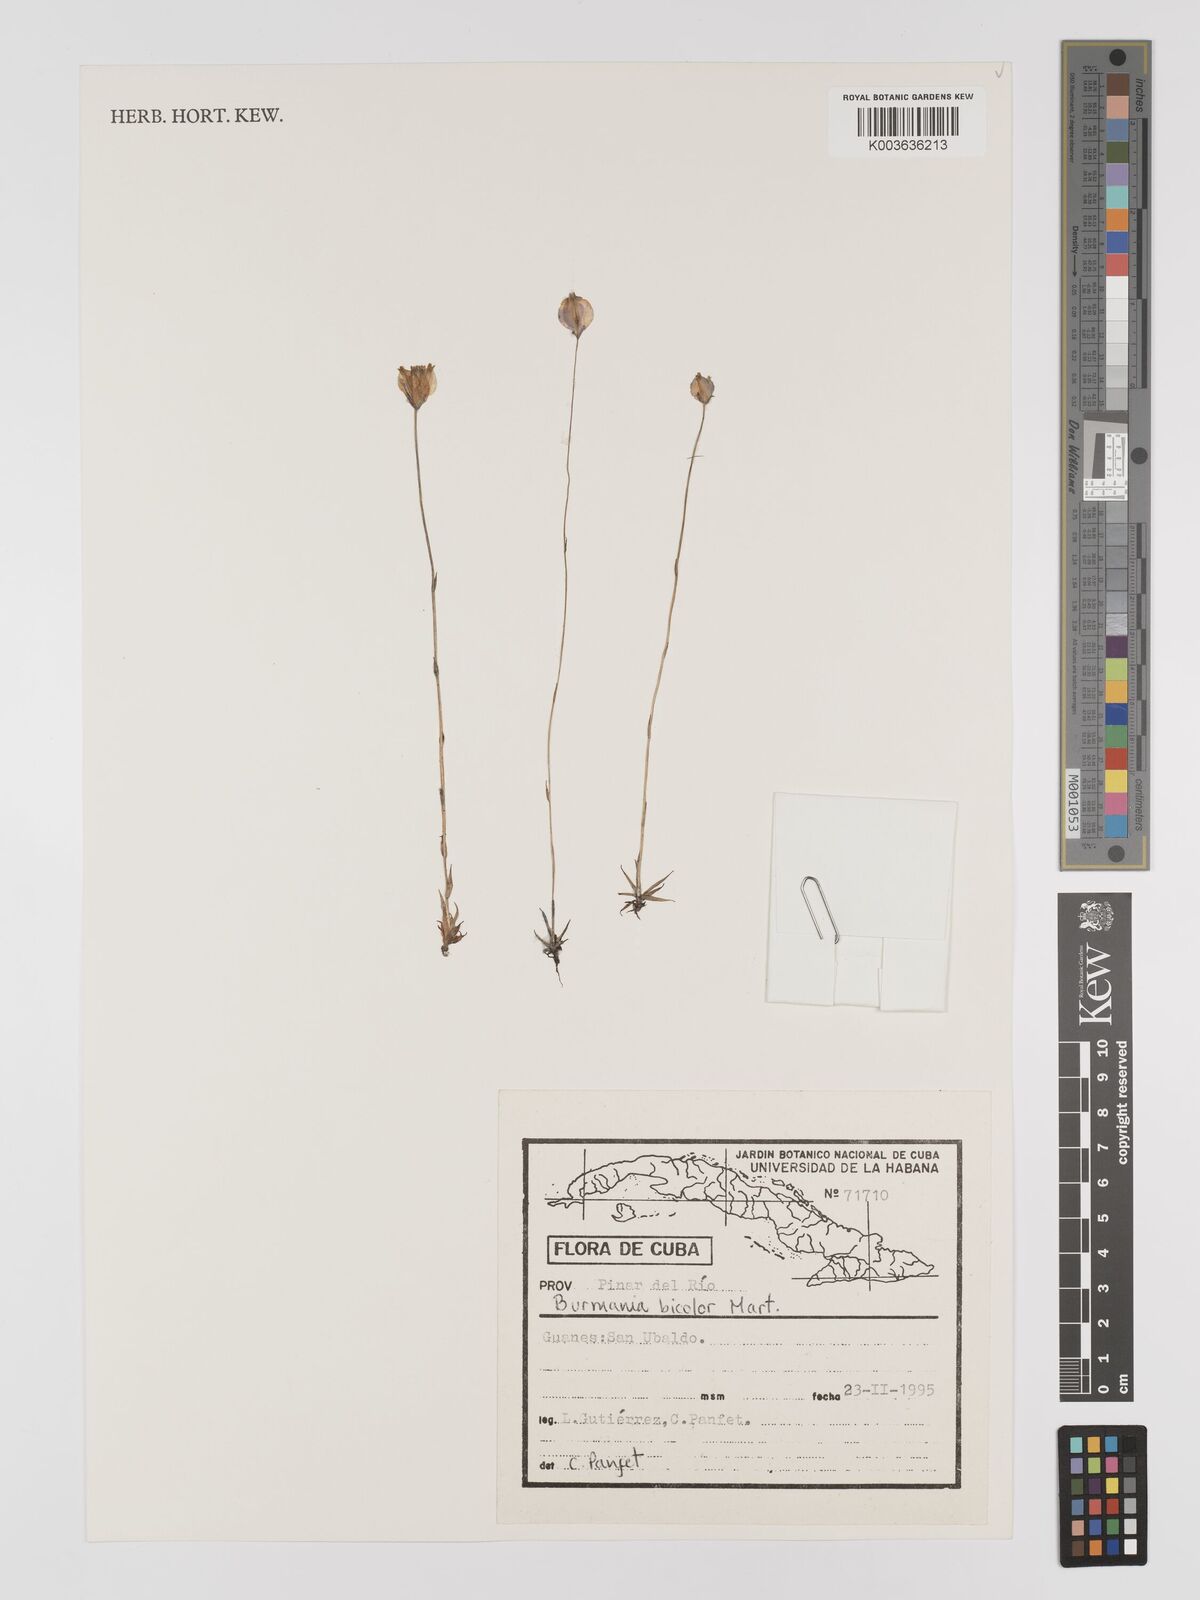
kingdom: Plantae
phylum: Tracheophyta
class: Liliopsida
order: Dioscoreales
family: Burmanniaceae
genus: Burmannia
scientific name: Burmannia bicolor
